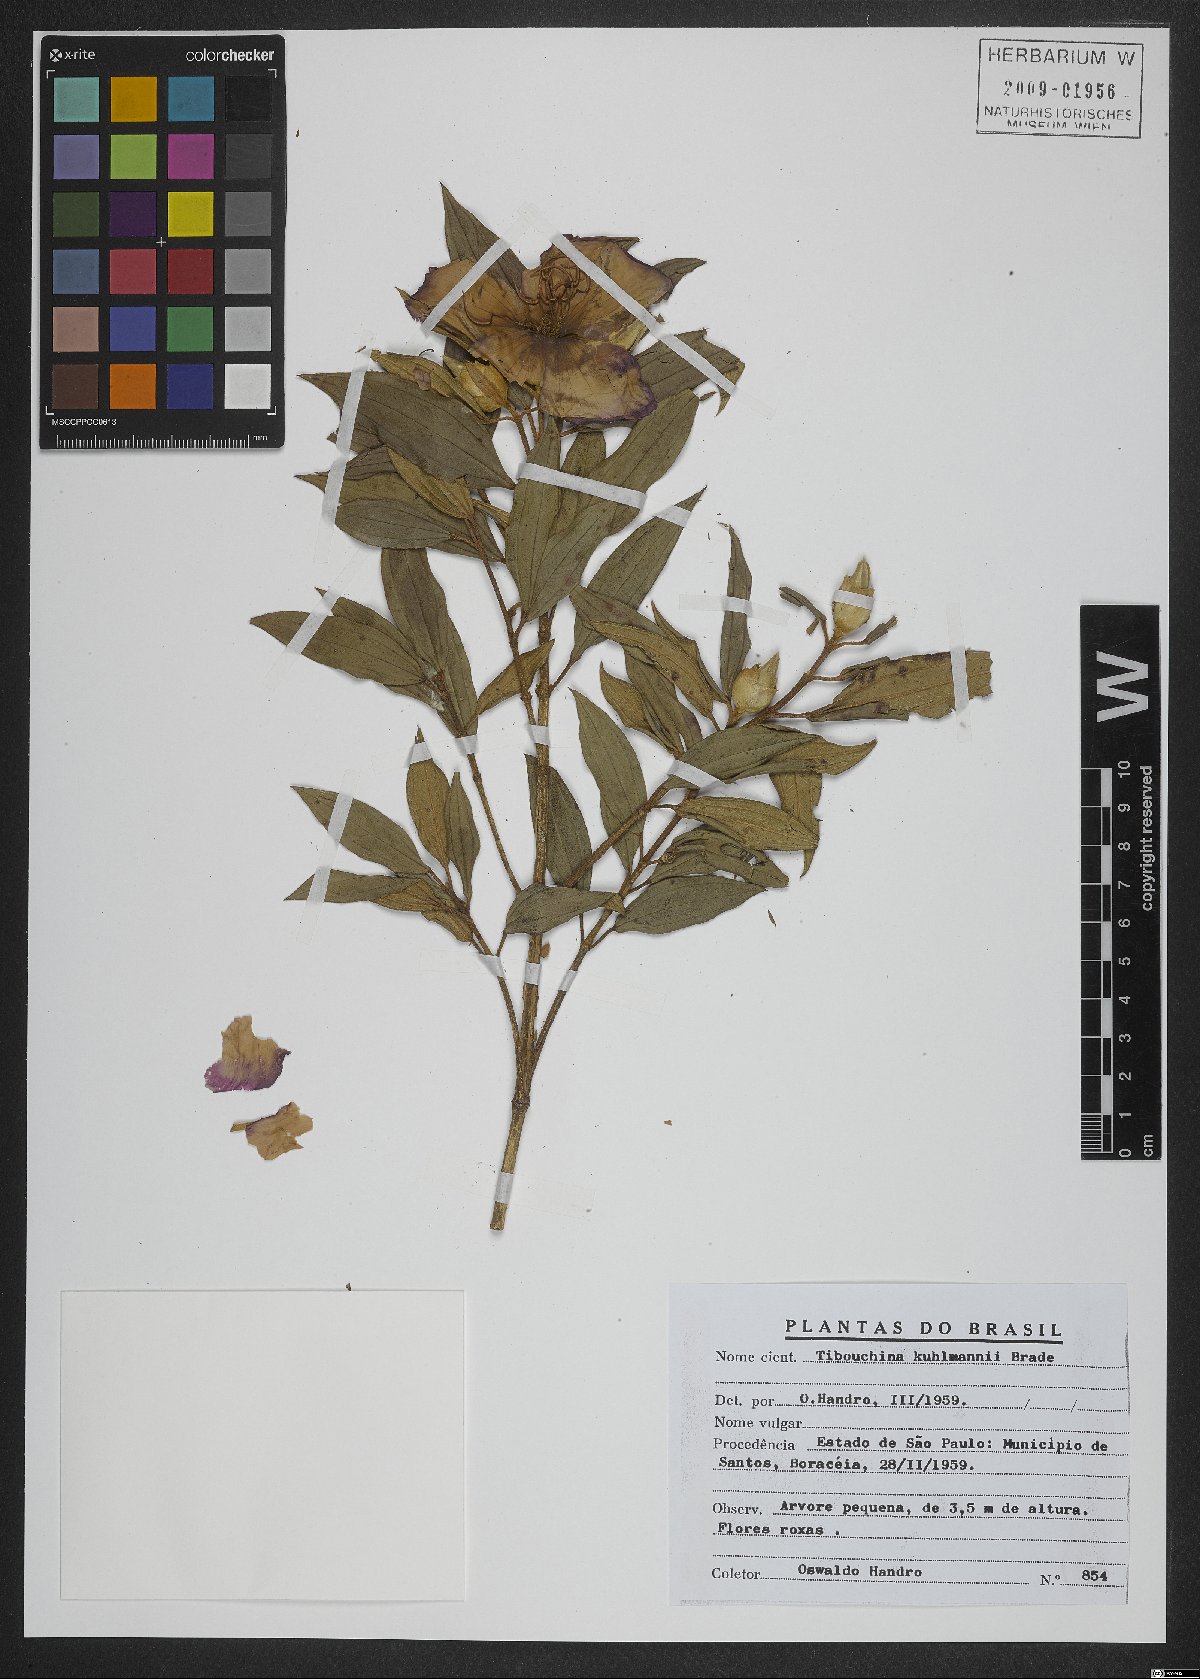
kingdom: Plantae
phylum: Tracheophyta
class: Magnoliopsida
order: Myrtales
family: Melastomataceae
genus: Pleroma
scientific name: Pleroma kuhlmannii
